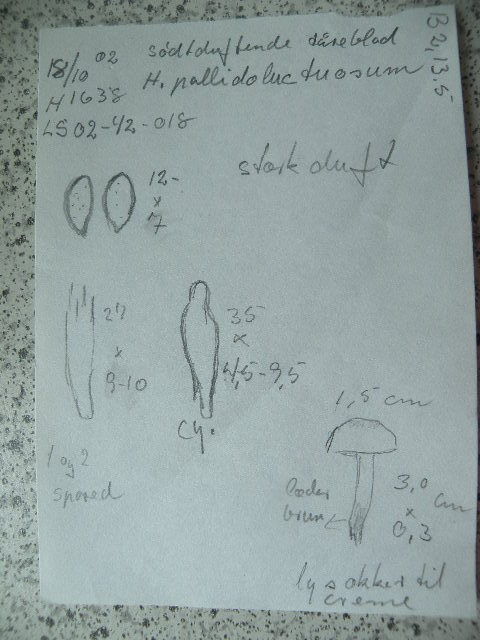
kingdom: Fungi
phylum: Basidiomycota
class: Agaricomycetes
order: Agaricales
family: Hymenogastraceae
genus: Hebeloma
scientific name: Hebeloma sacchariolens
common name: sødtduftende tåreblad
